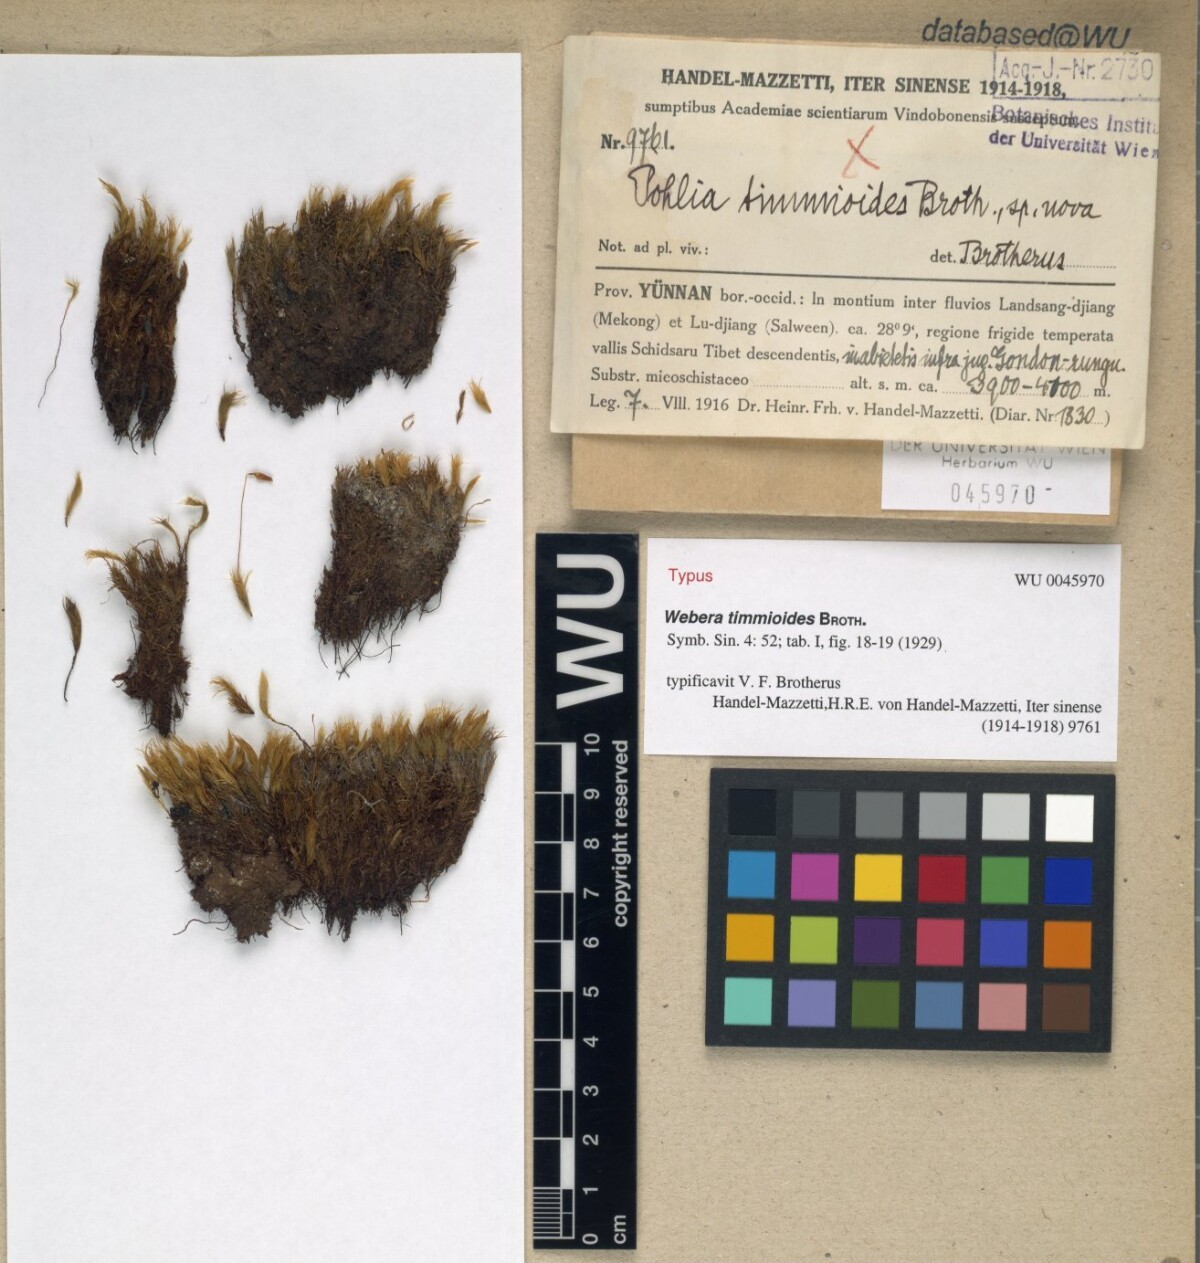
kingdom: Plantae
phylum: Bryophyta
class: Bryopsida
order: Bryales
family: Mniaceae
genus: Pohlia
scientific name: Pohlia timmioides
